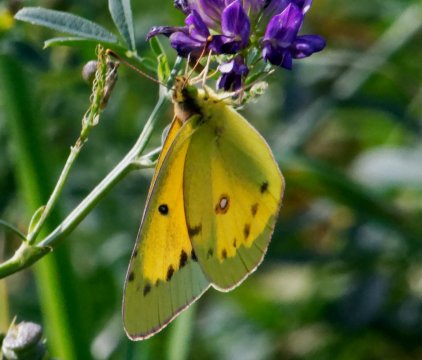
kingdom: Animalia
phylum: Arthropoda
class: Insecta
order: Lepidoptera
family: Pieridae
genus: Colias
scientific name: Colias eurytheme
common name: Orange Sulphur
